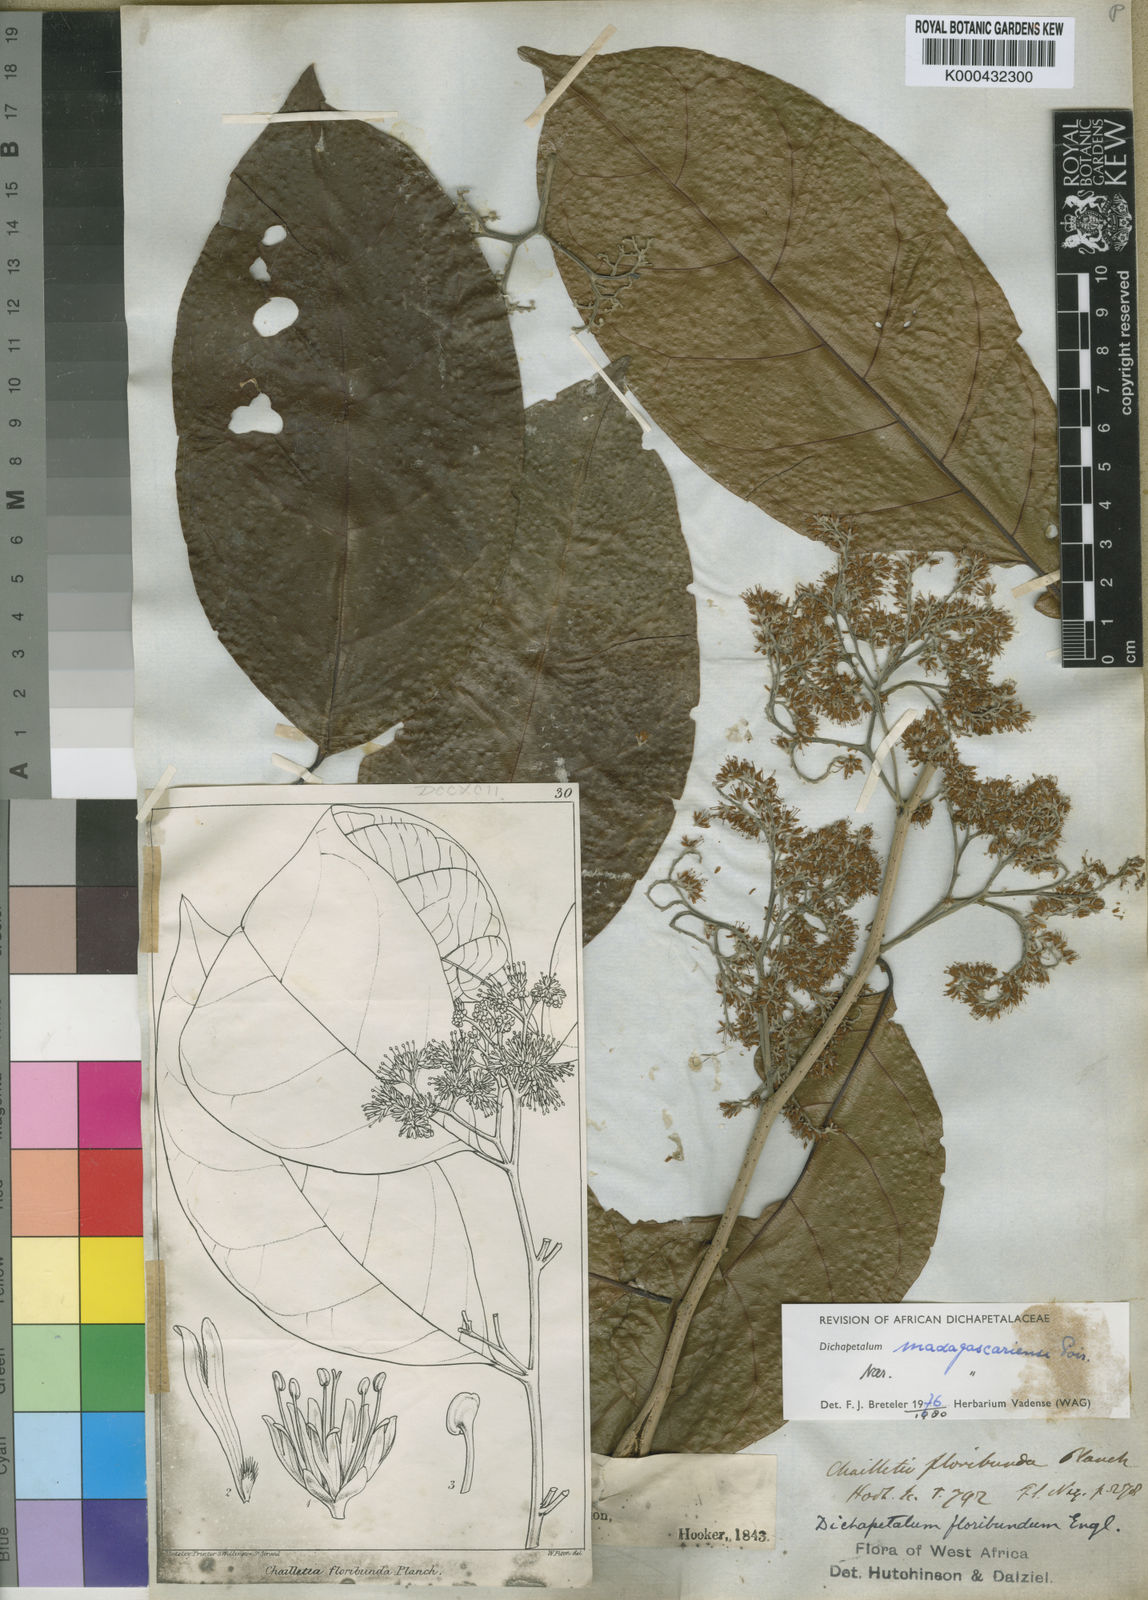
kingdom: Plantae
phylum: Tracheophyta
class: Magnoliopsida
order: Malpighiales
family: Dichapetalaceae
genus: Dichapetalum
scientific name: Dichapetalum madagascariense
